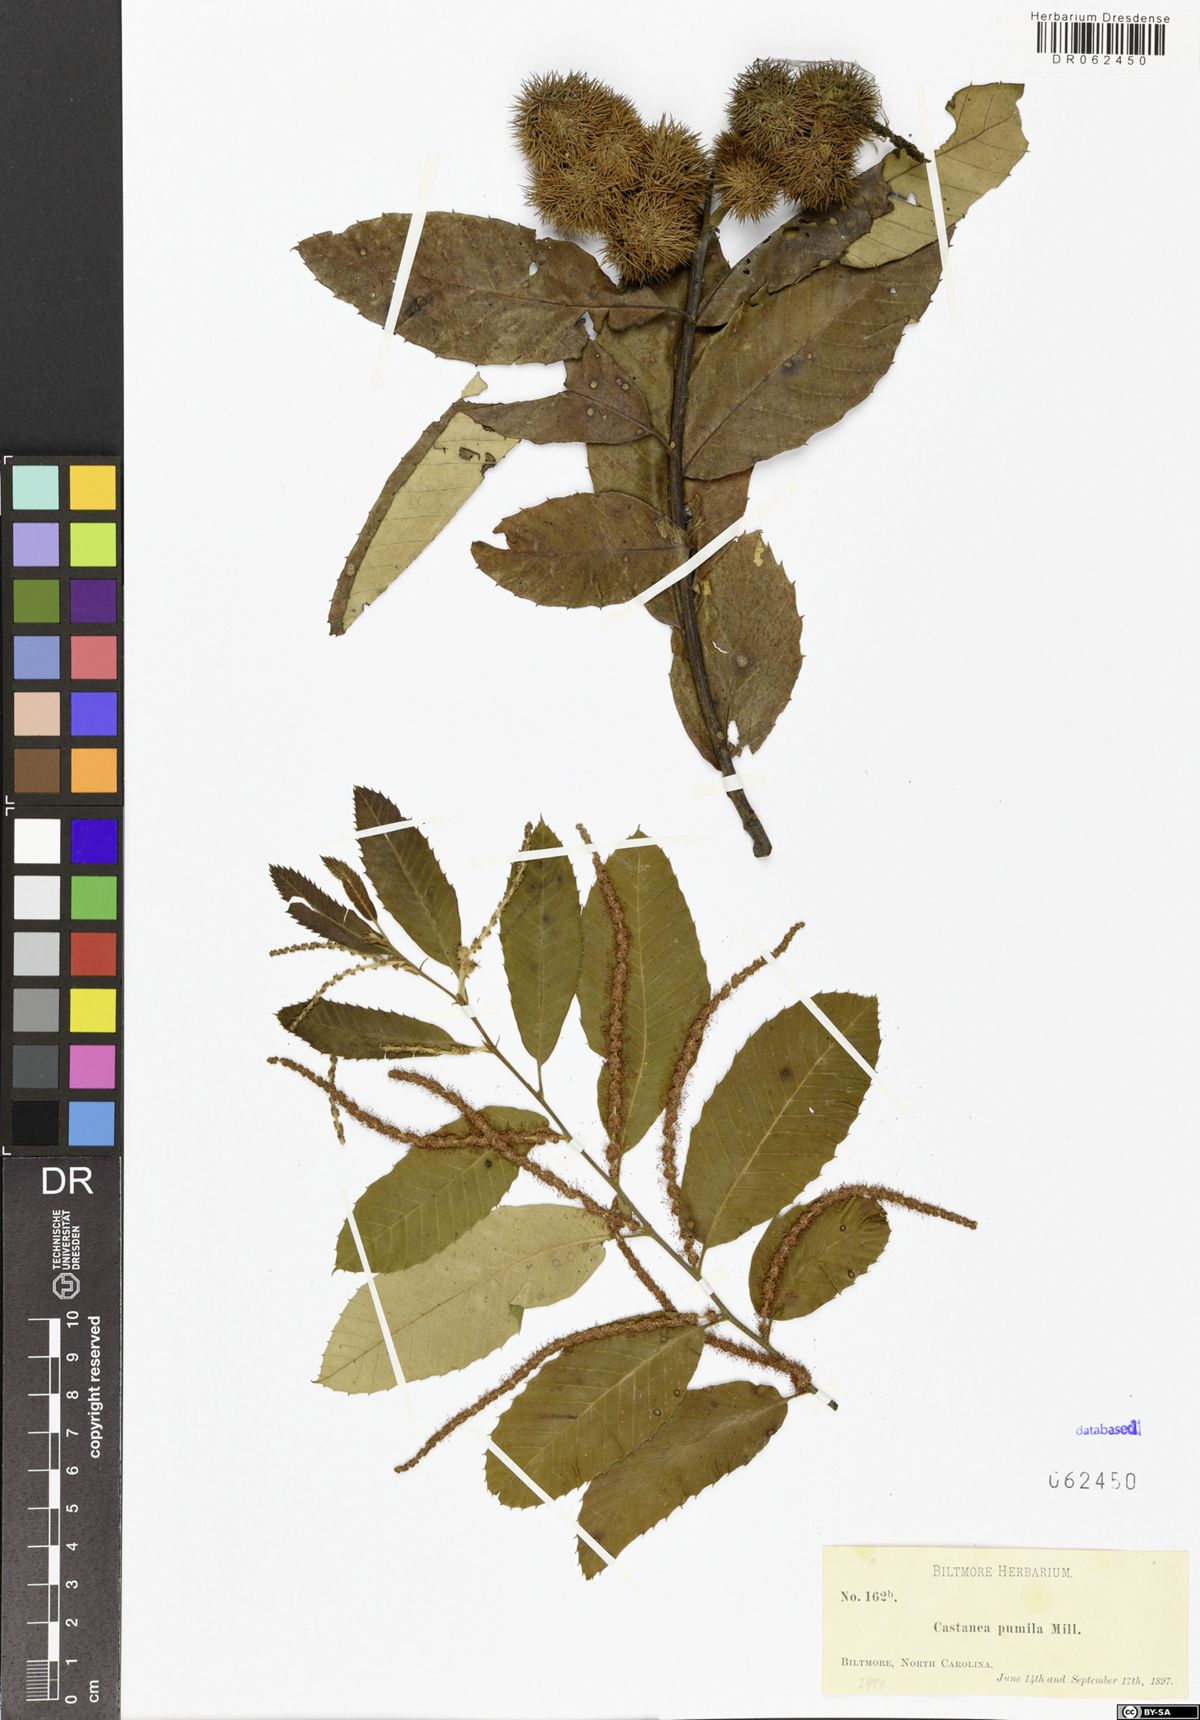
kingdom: Plantae
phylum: Tracheophyta
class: Magnoliopsida
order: Fagales
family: Fagaceae
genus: Castanea
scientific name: Castanea pumila
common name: Chinkapin
